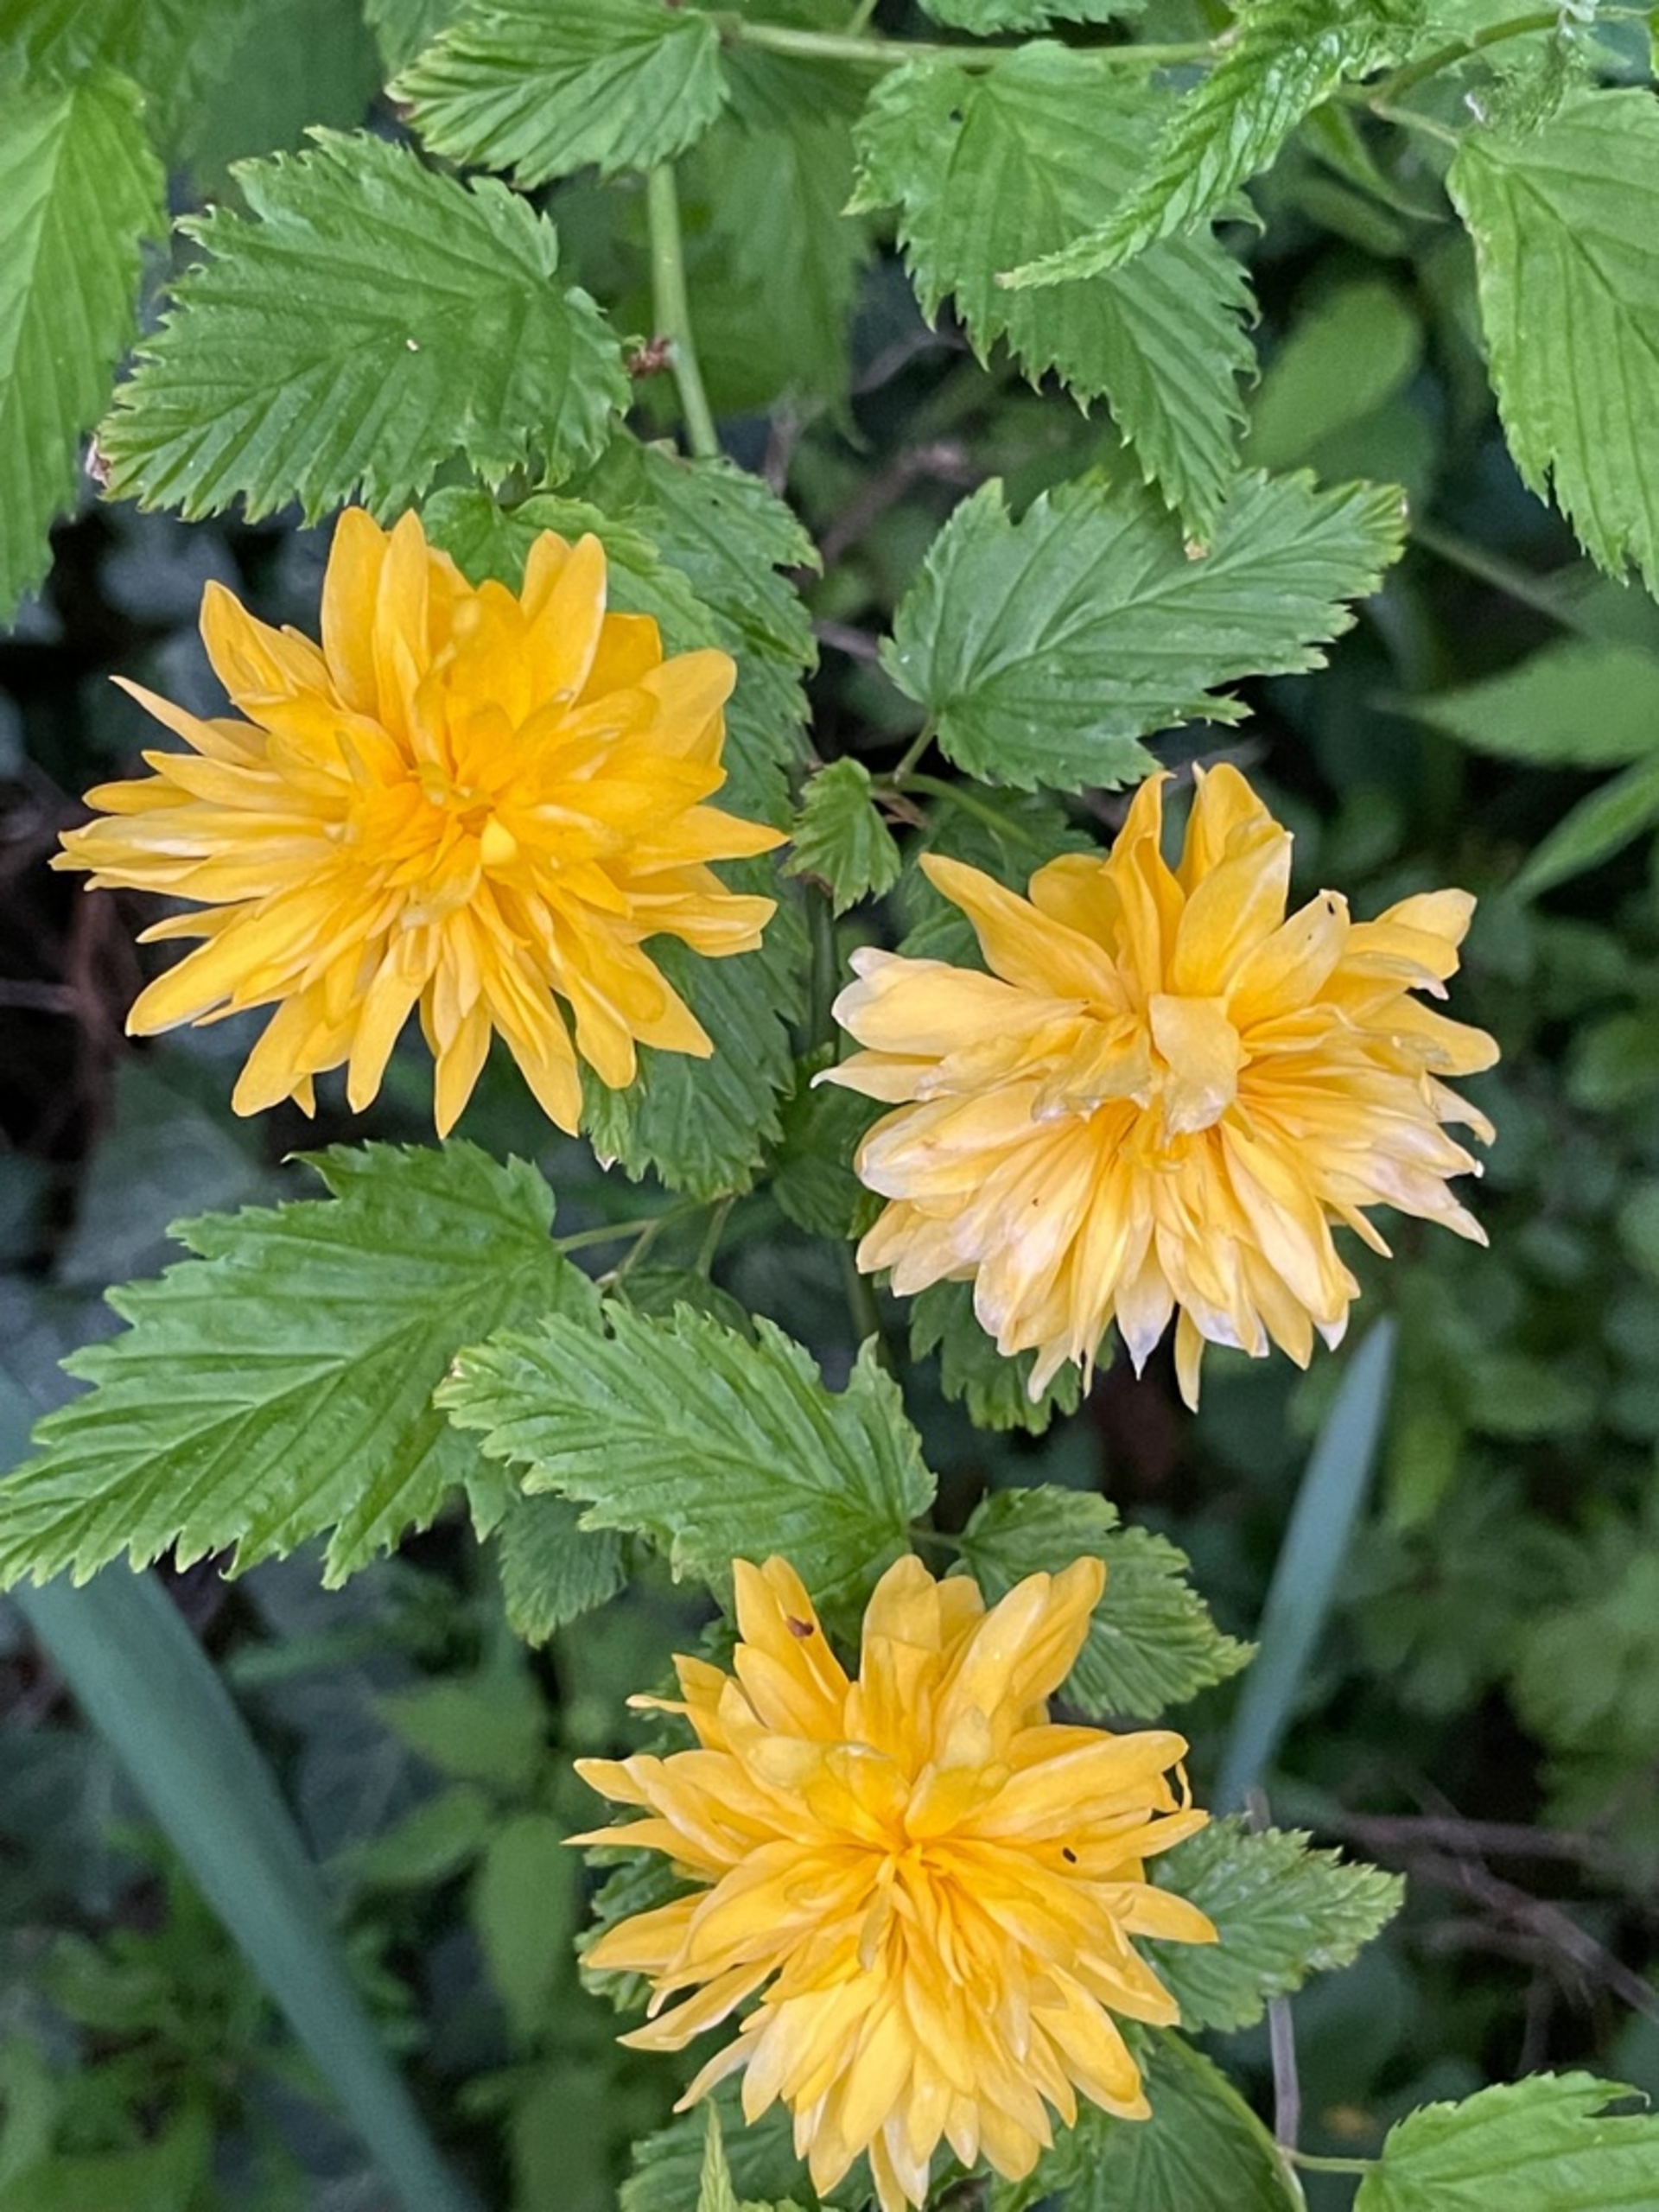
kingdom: Plantae
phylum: Tracheophyta
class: Magnoliopsida
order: Rosales
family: Rosaceae
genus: Kerria
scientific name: Kerria japonica
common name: Ranunkelbusk
